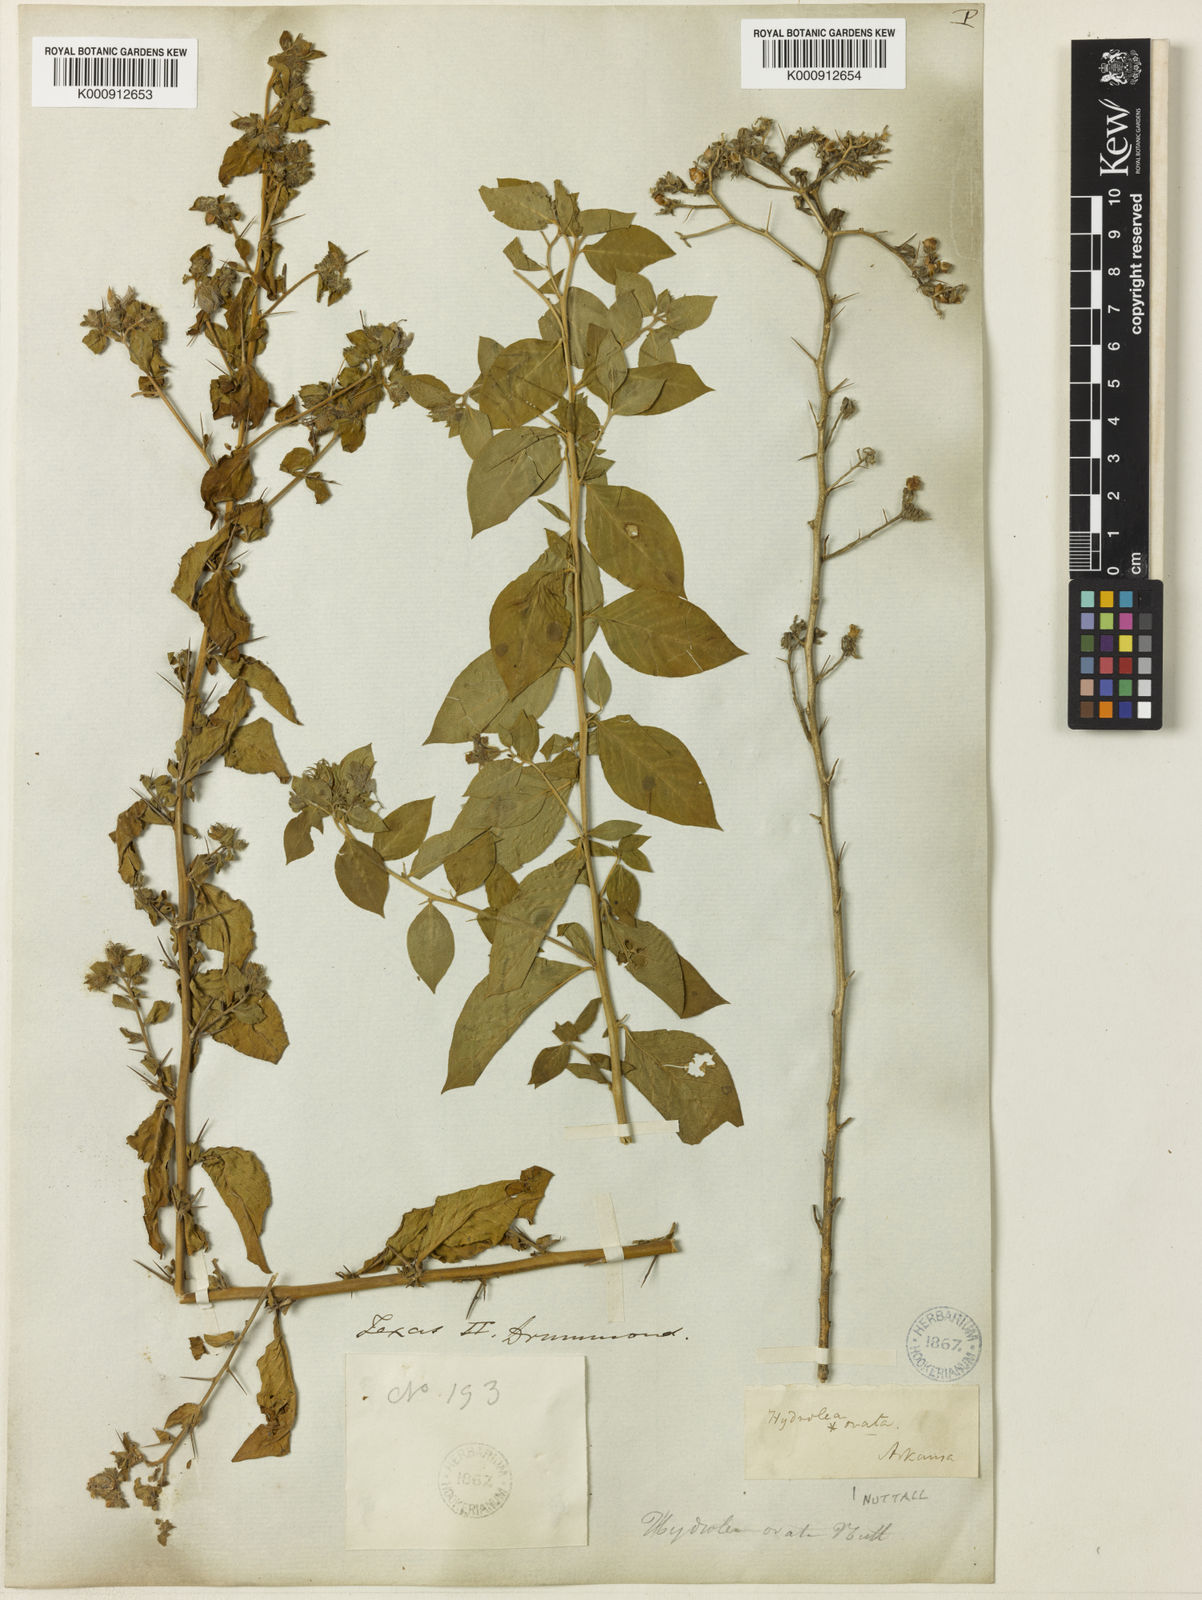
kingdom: Plantae
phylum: Tracheophyta
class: Magnoliopsida
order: Solanales
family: Hydroleaceae
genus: Hydrolea
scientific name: Hydrolea ovata
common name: Ovate false fiddleleaf
